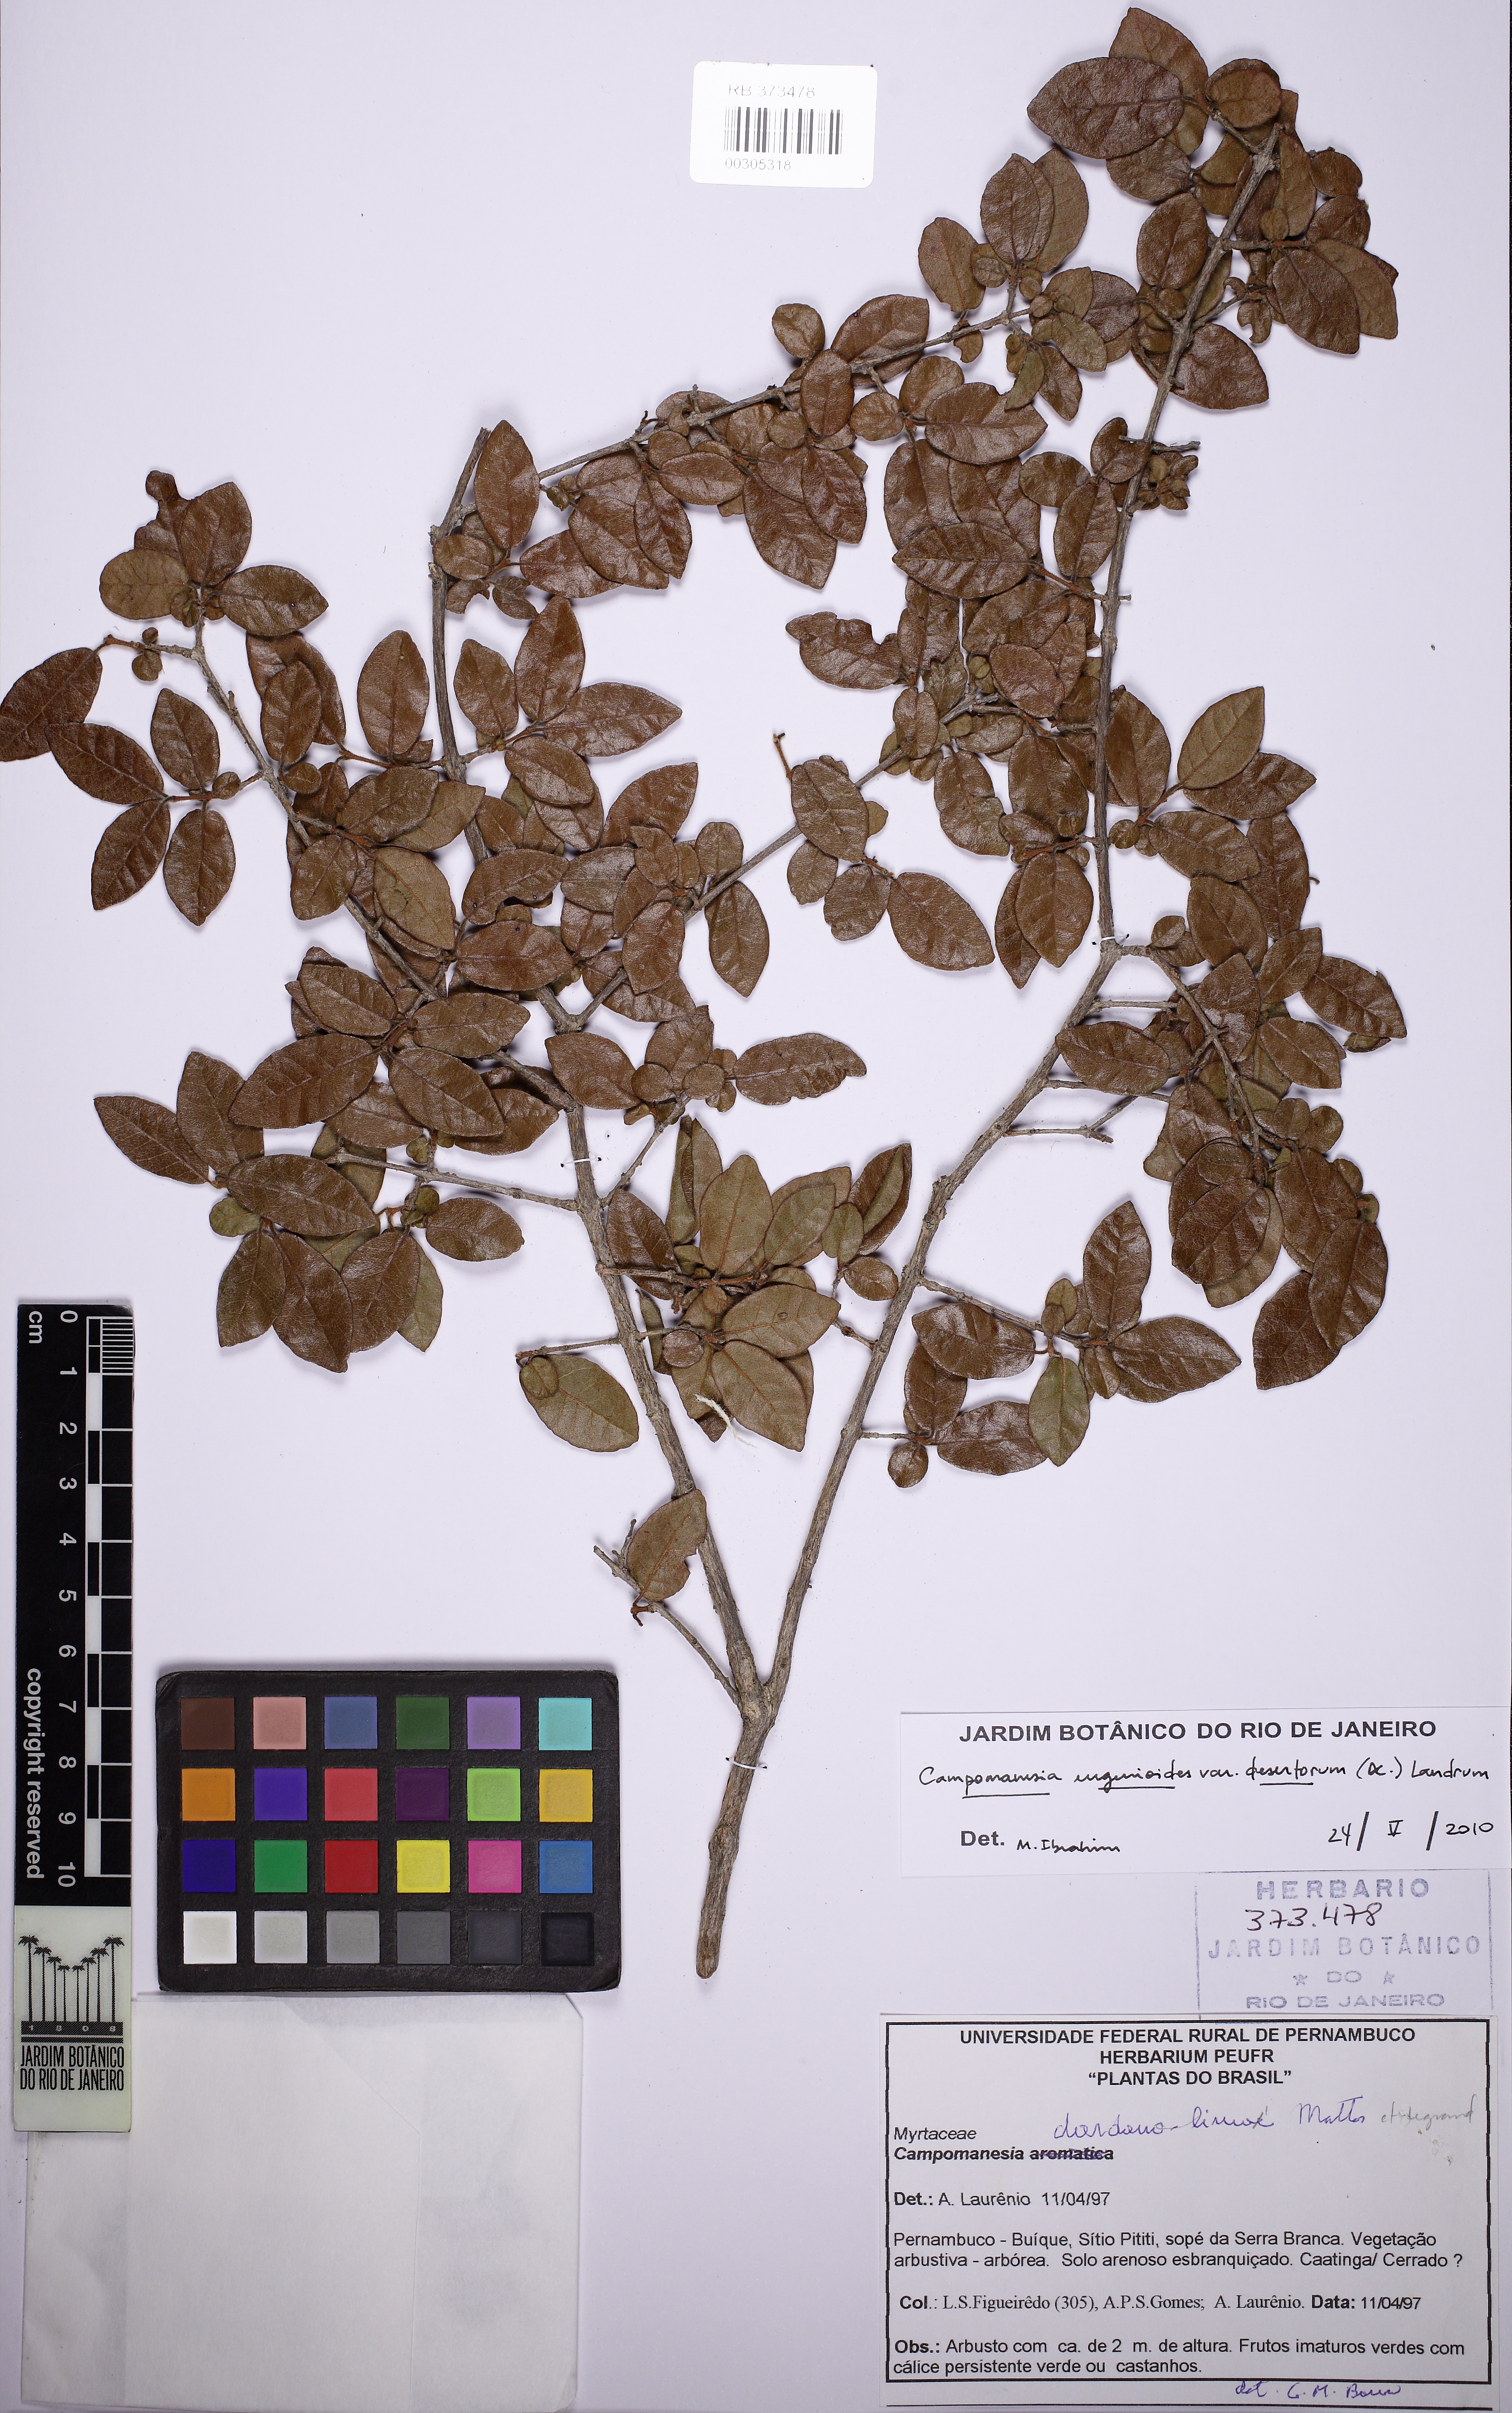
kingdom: Plantae
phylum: Tracheophyta
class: Magnoliopsida
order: Myrtales
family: Myrtaceae
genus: Campomanesia
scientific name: Campomanesia eugenioides
